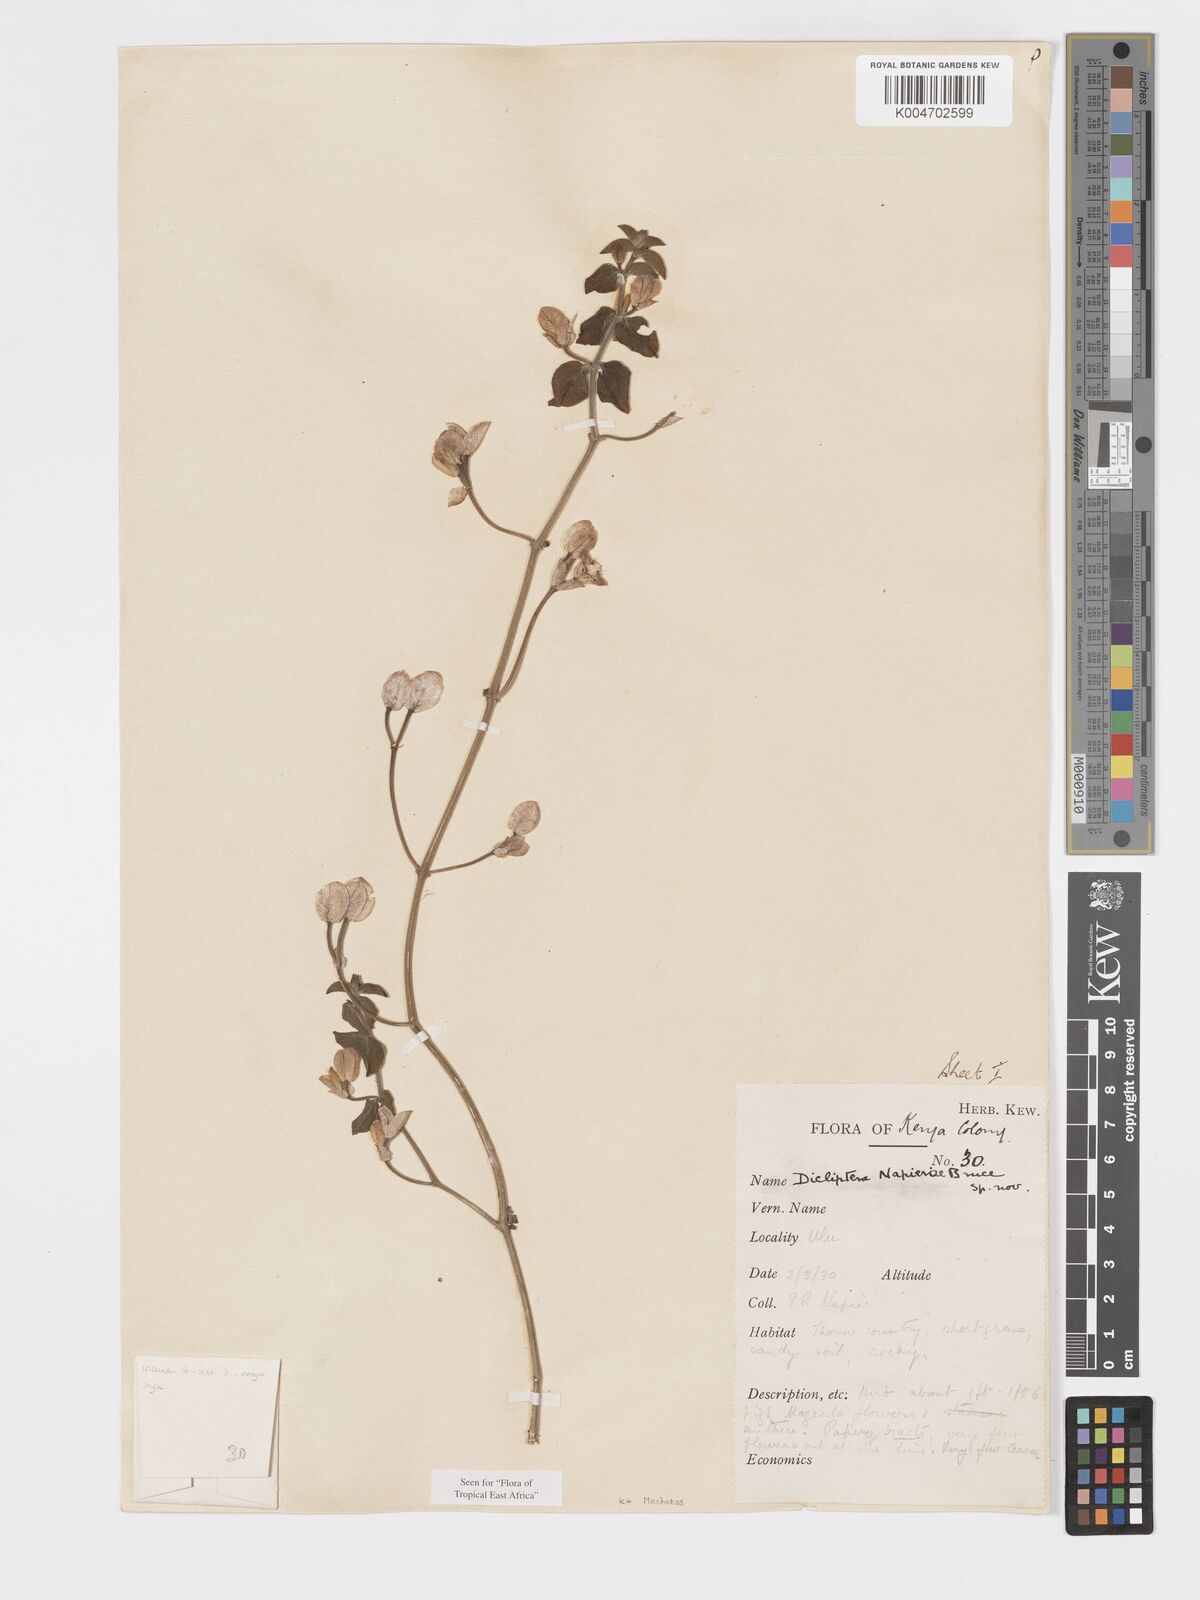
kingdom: Plantae
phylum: Tracheophyta
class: Magnoliopsida
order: Lamiales
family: Acanthaceae
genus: Dicliptera
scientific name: Dicliptera napierae
